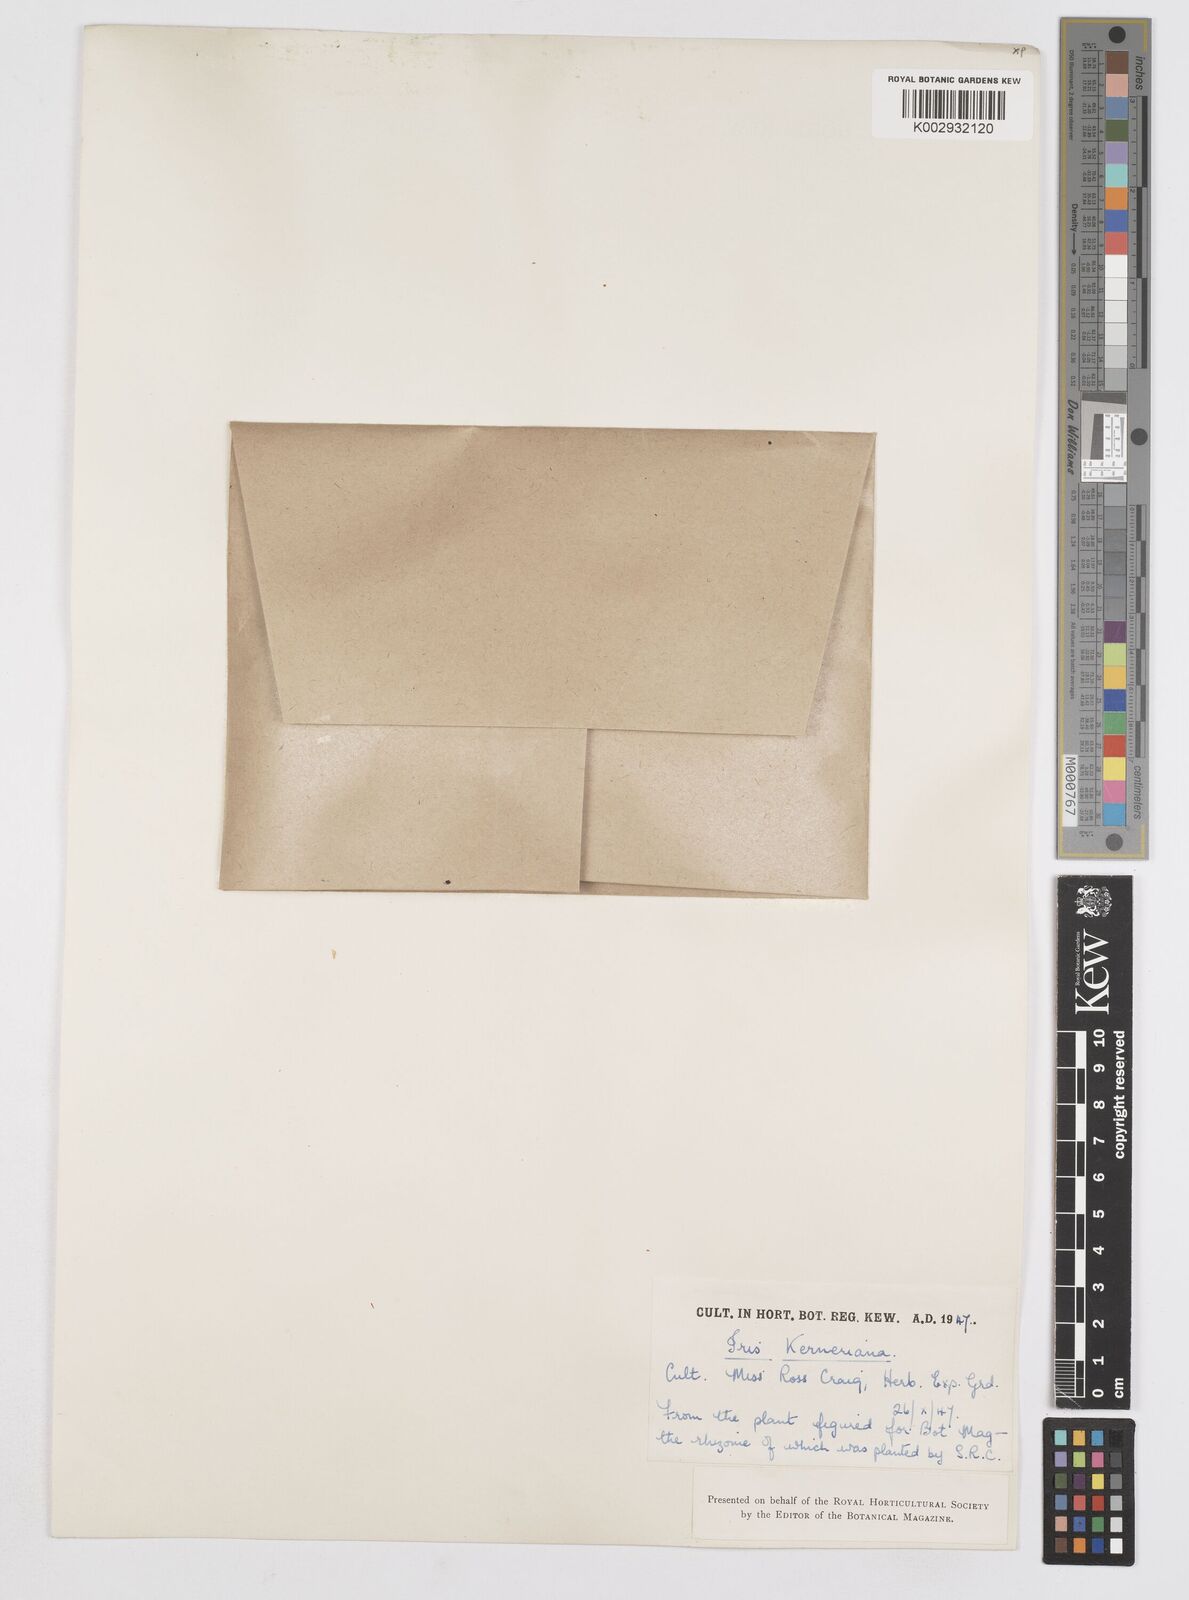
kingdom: Plantae
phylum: Tracheophyta
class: Liliopsida
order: Asparagales
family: Iridaceae
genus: Iris
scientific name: Iris haussknechtii
